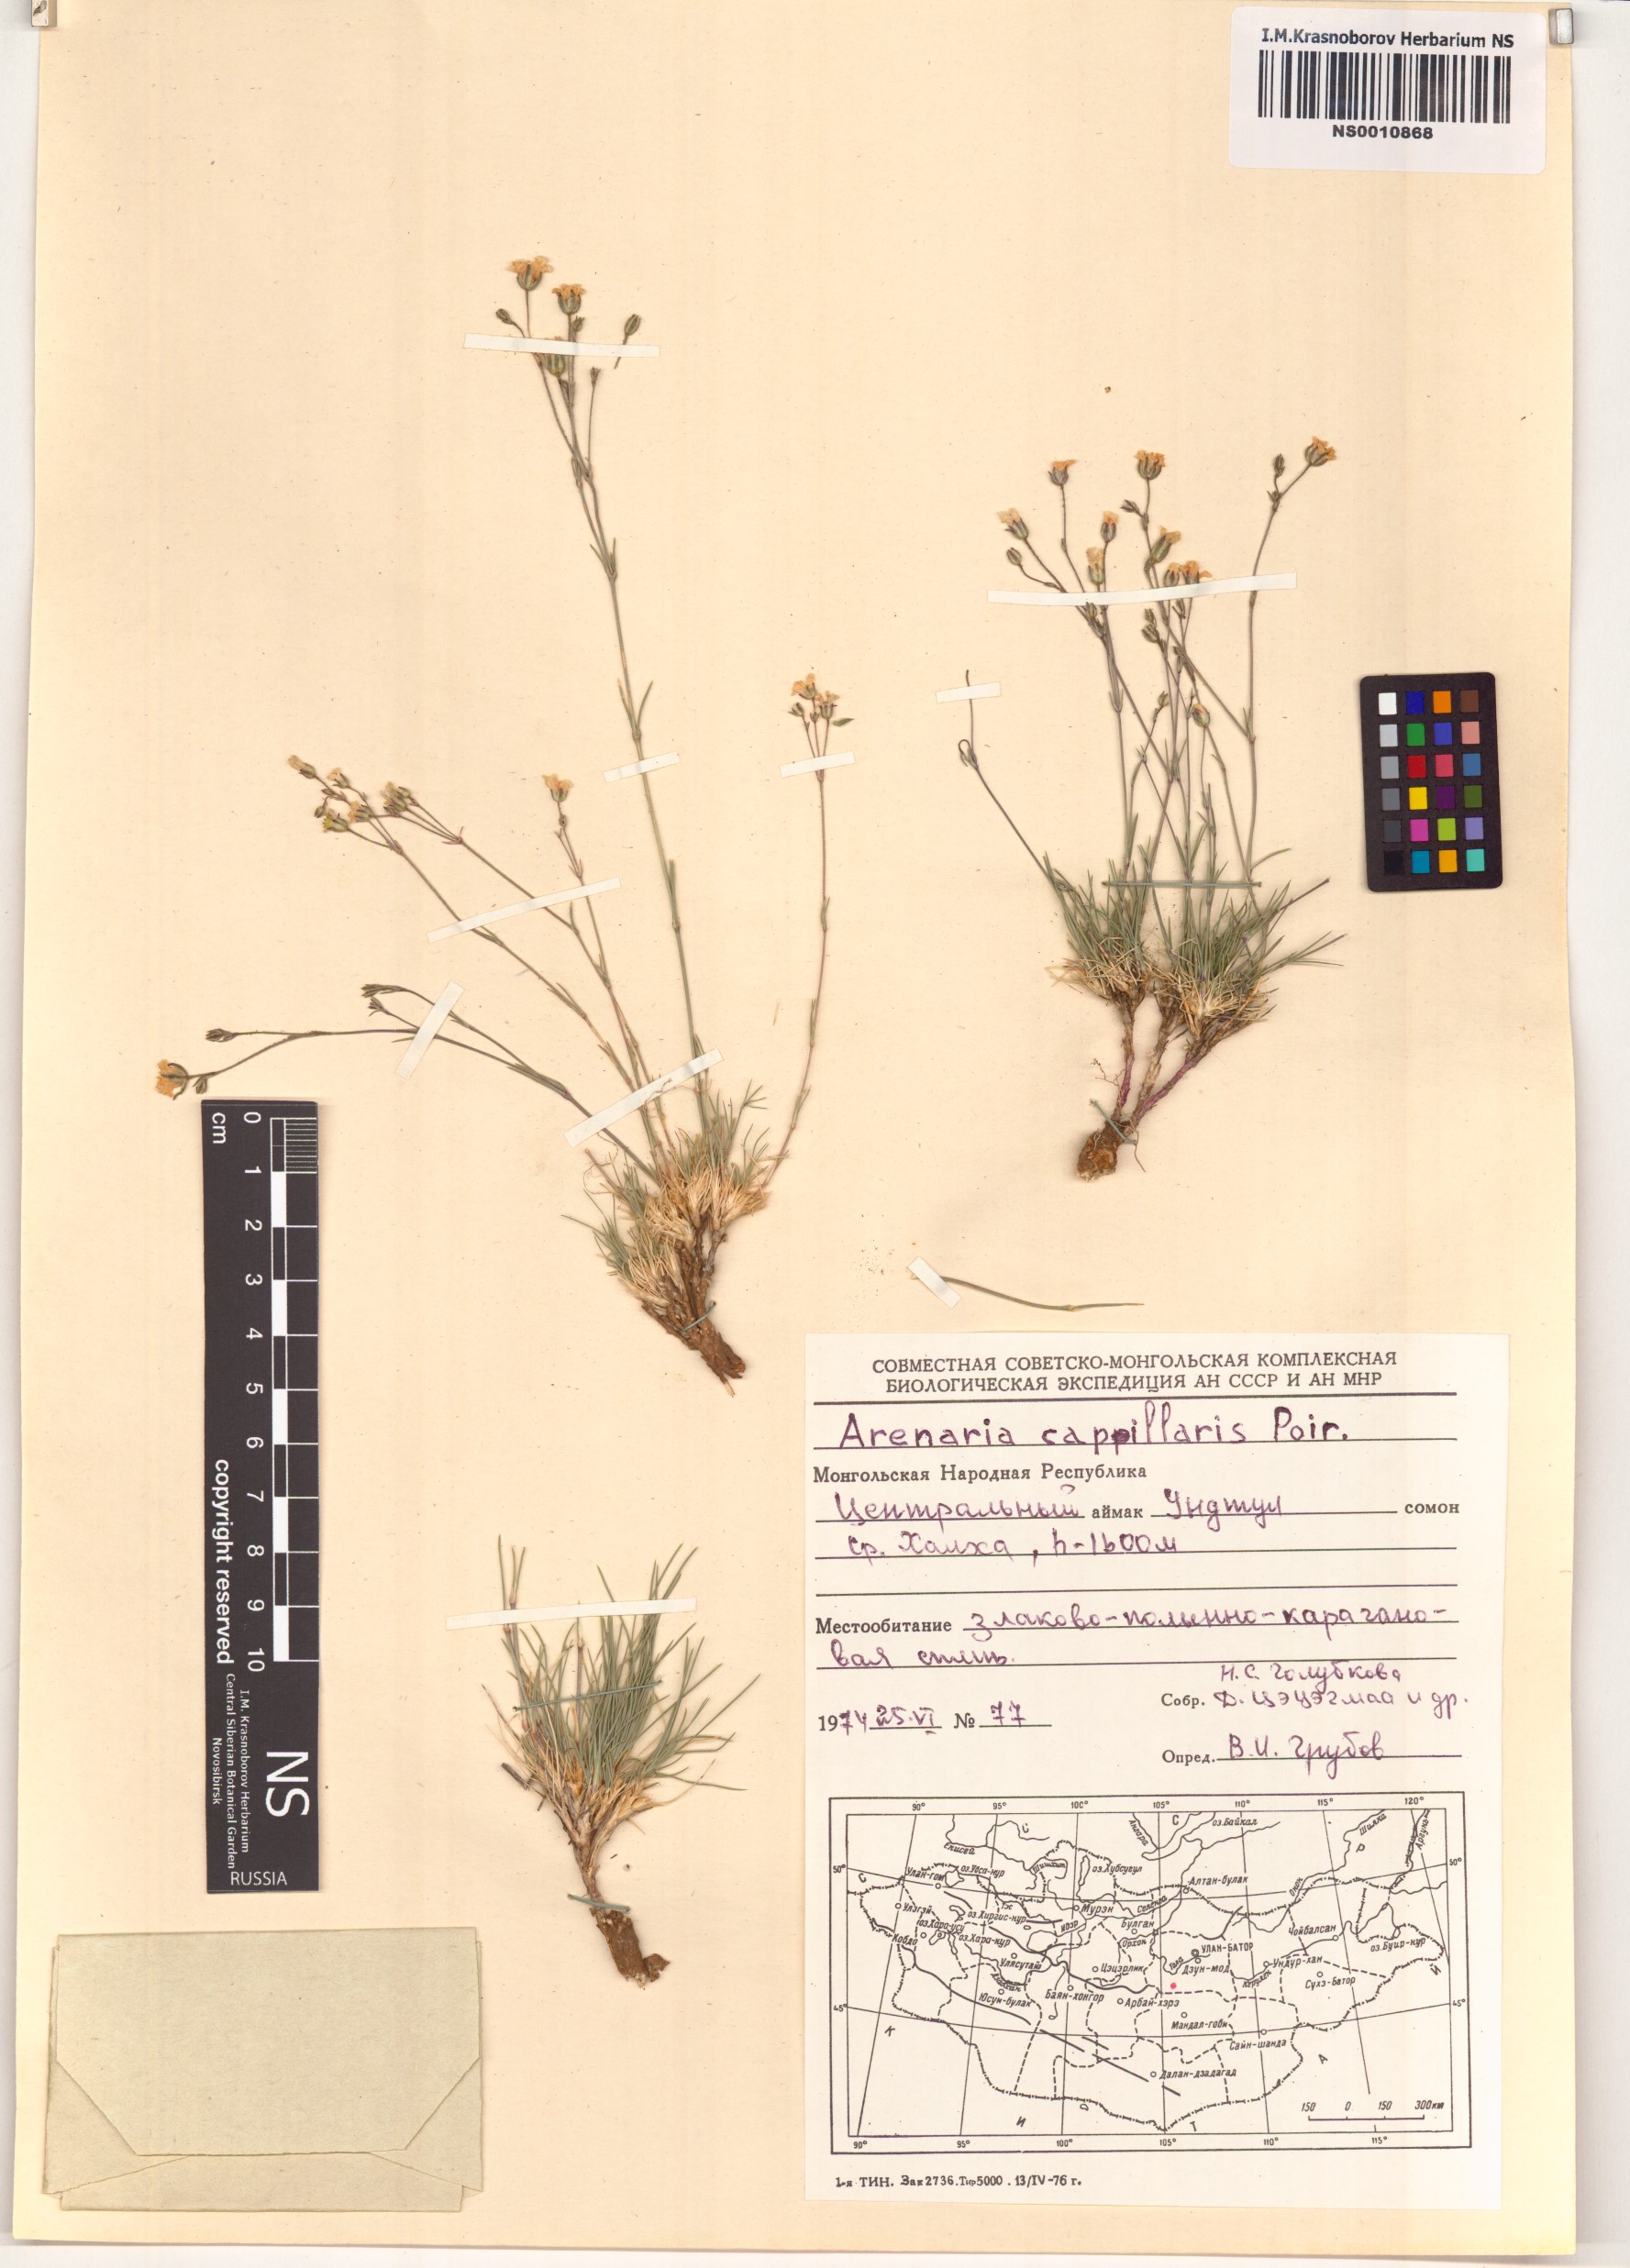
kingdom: Plantae
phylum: Tracheophyta
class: Magnoliopsida
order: Caryophyllales
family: Caryophyllaceae
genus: Eremogone
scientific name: Eremogone capillaris
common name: Slender mountain sandwort
